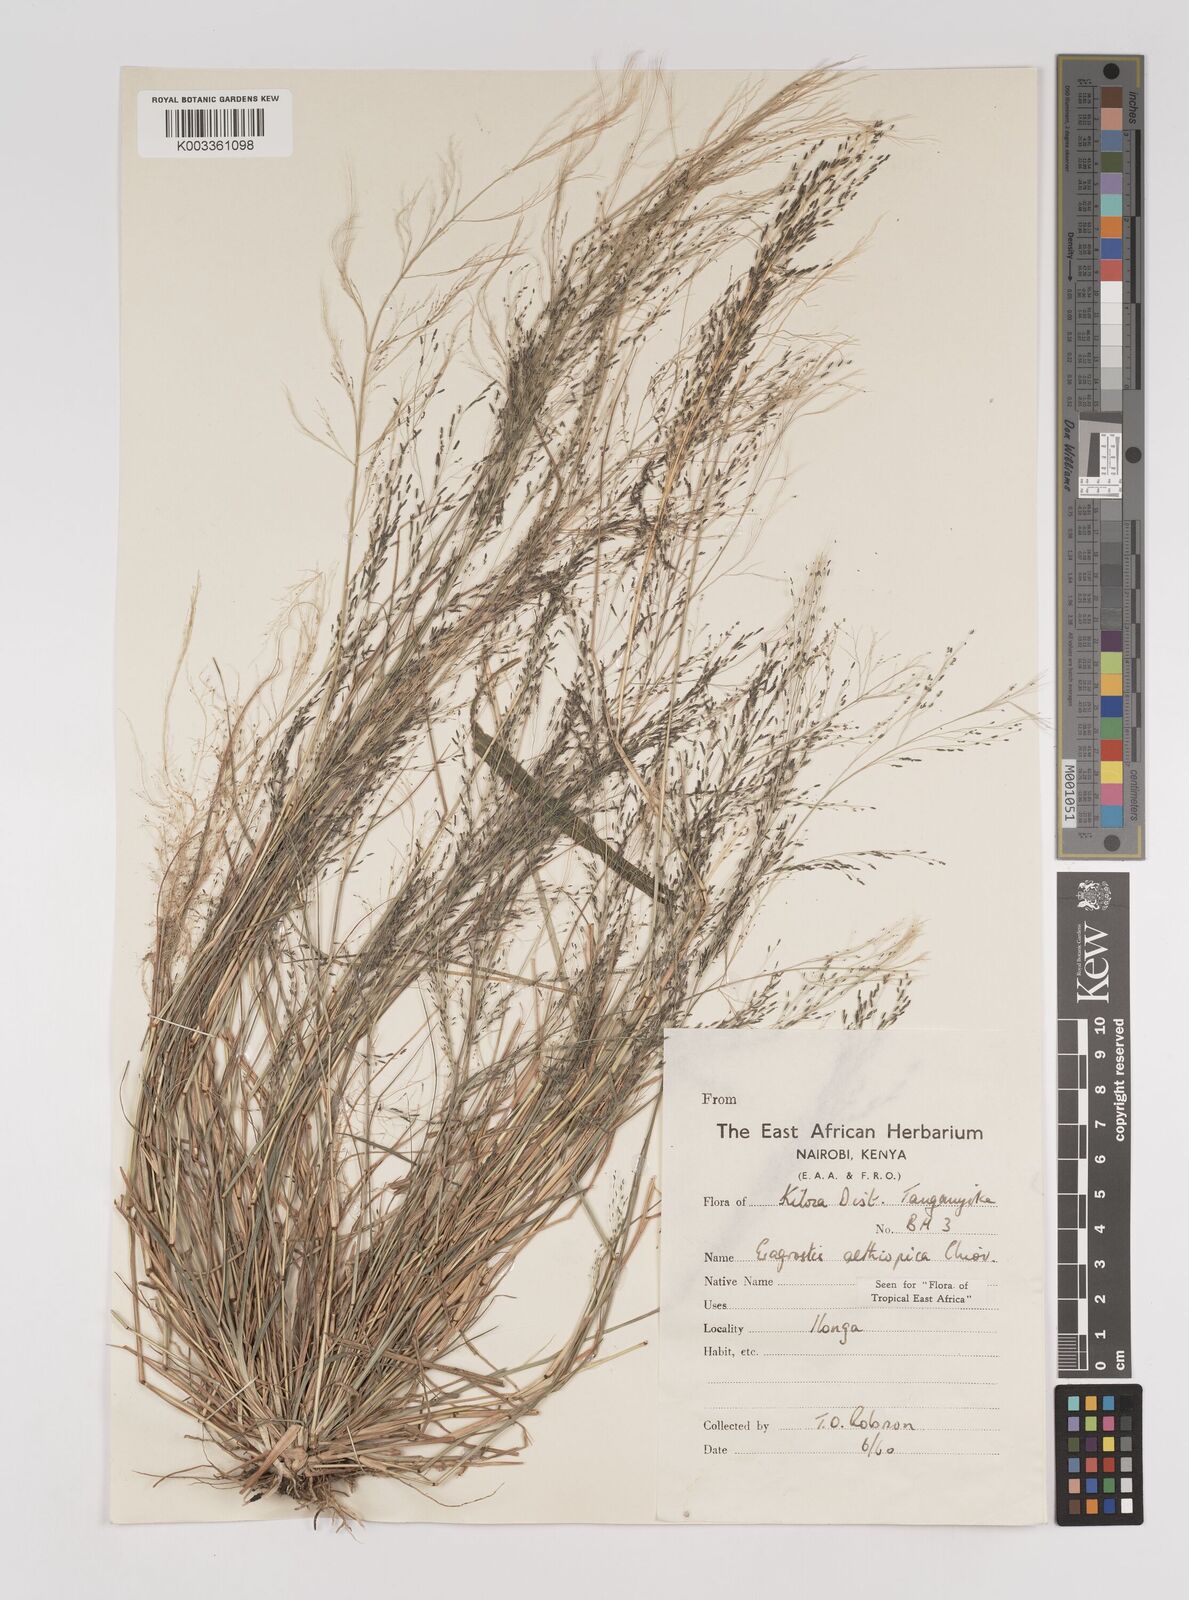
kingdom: Plantae
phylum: Tracheophyta
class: Liliopsida
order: Poales
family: Poaceae
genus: Eragrostis
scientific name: Eragrostis aethiopica
